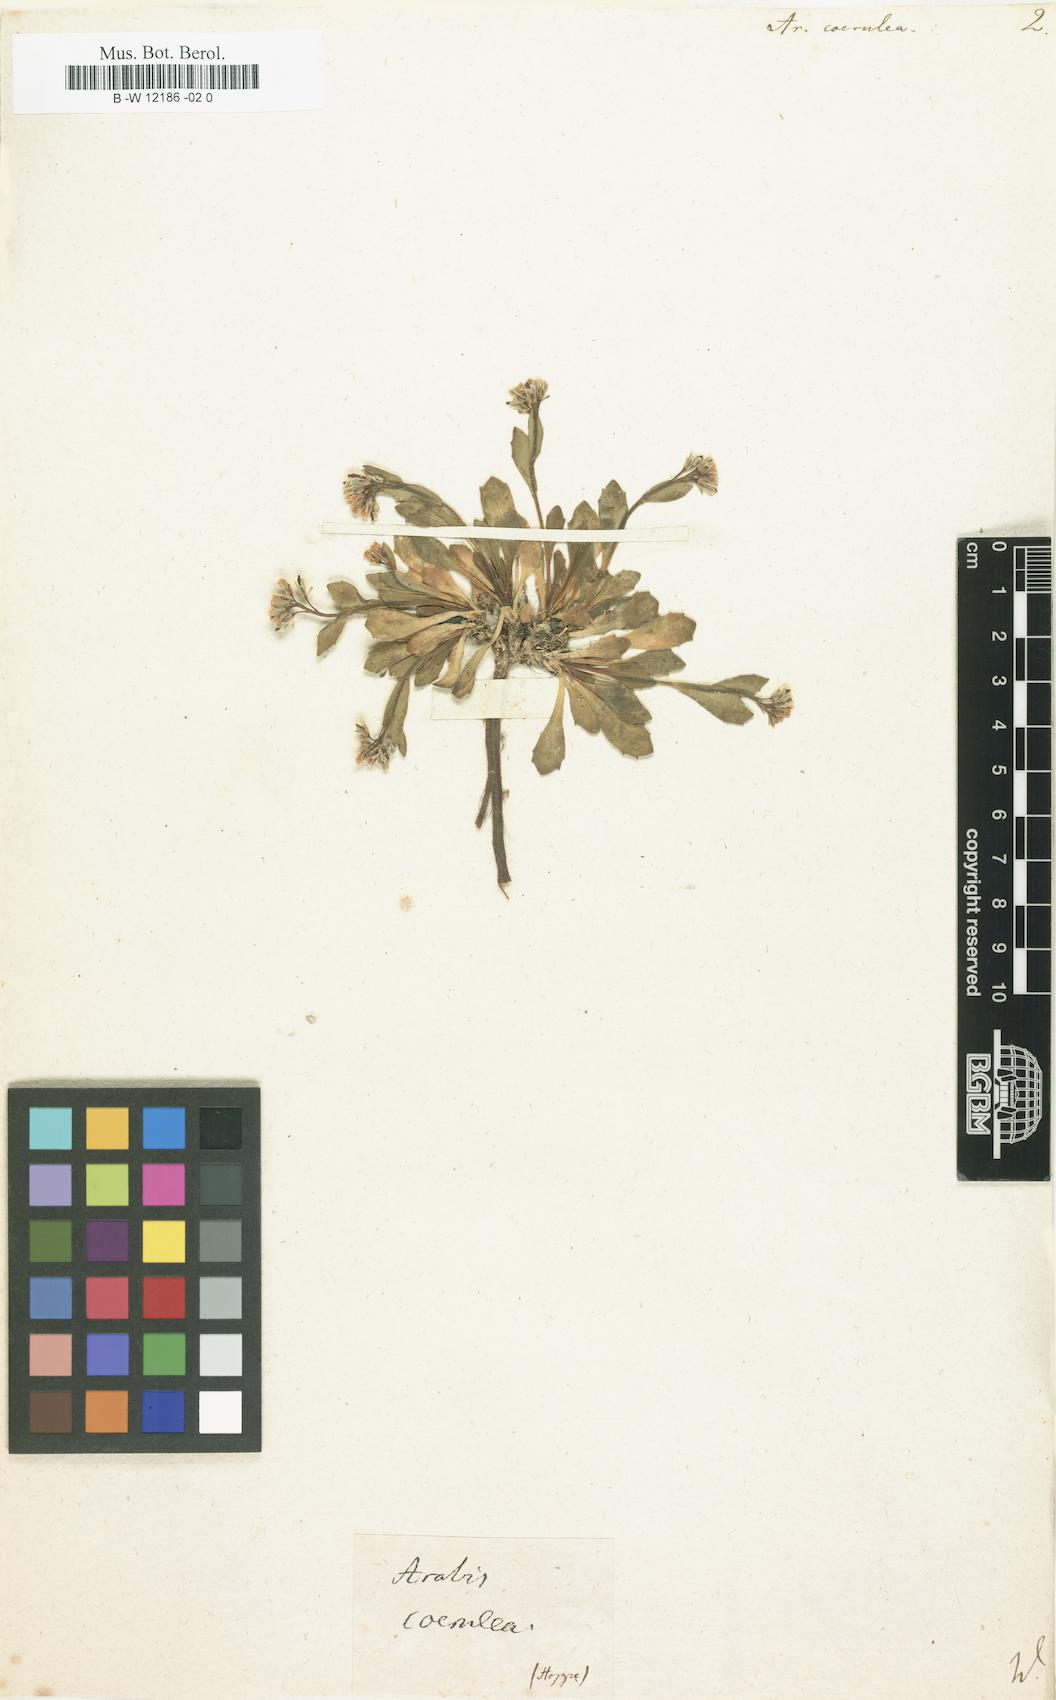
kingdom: Plantae
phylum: Tracheophyta
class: Magnoliopsida
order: Brassicales
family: Brassicaceae
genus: Arabis
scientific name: Arabis coerulea
